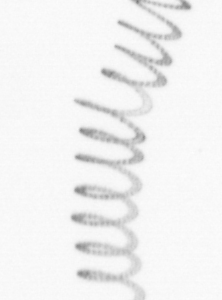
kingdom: Chromista
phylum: Ochrophyta
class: Bacillariophyceae
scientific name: Bacillariophyceae
